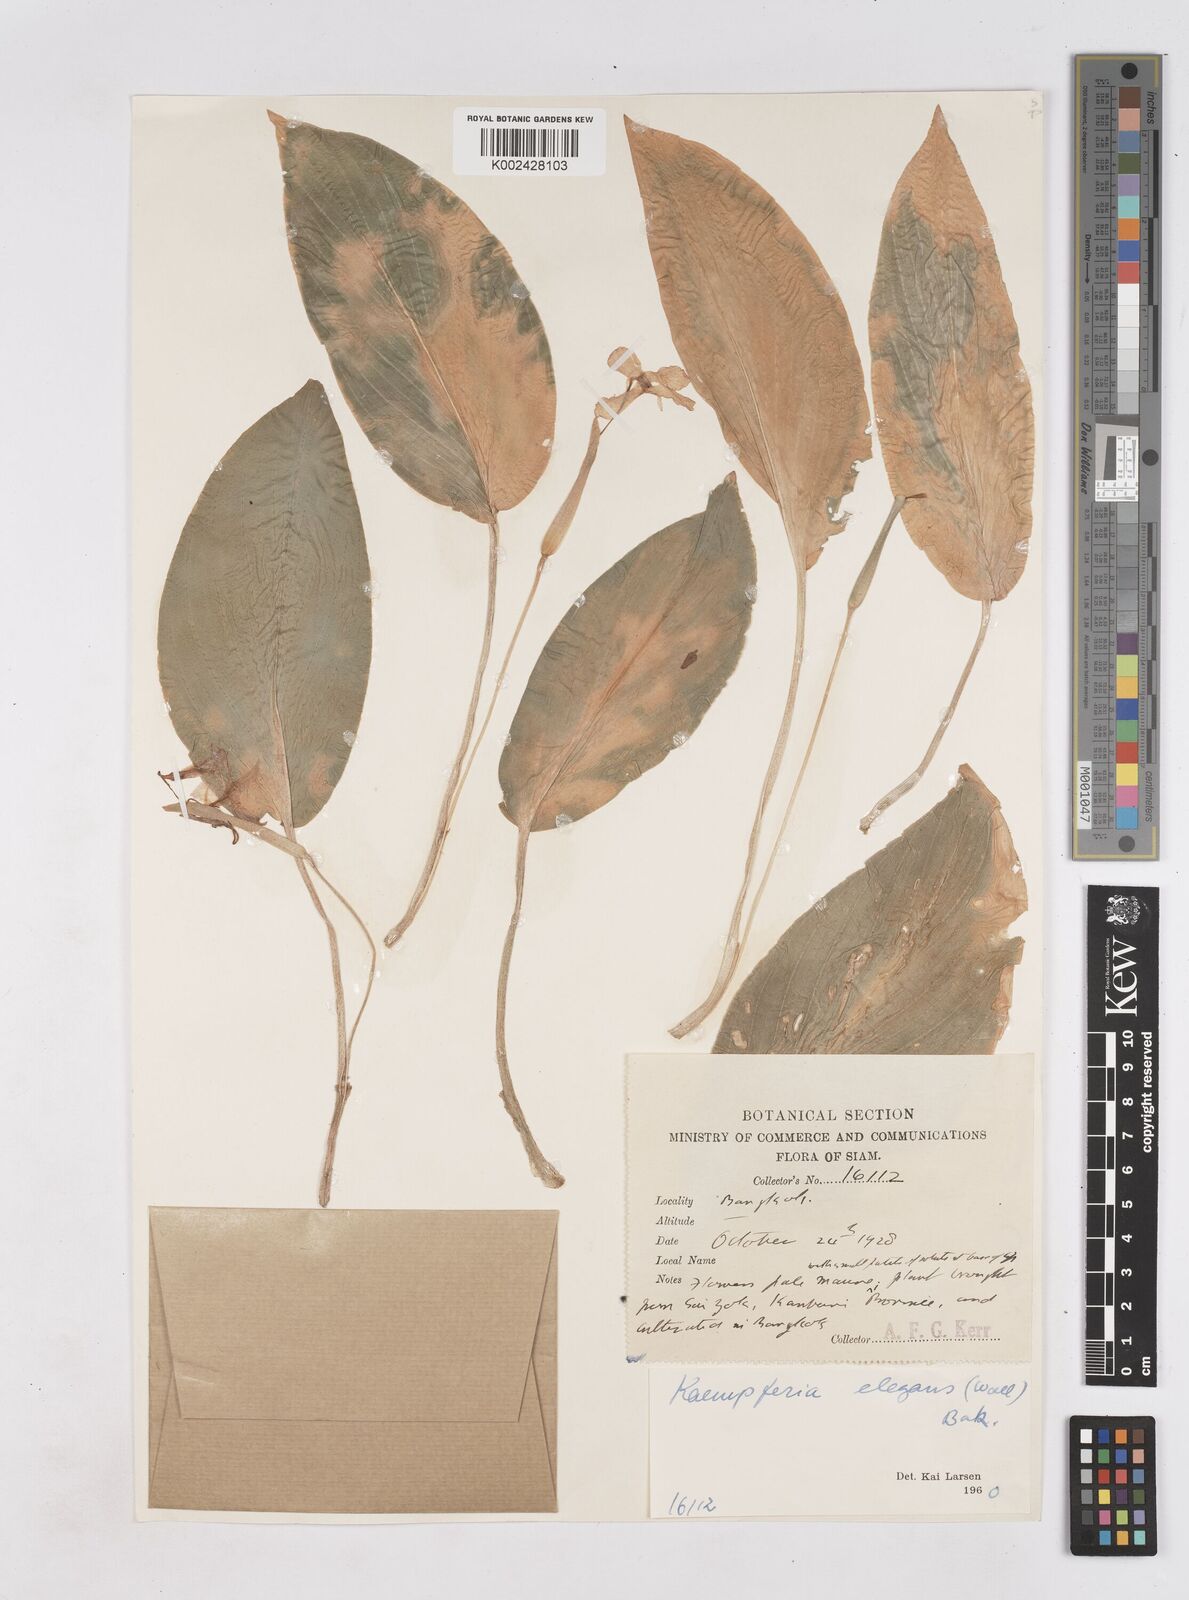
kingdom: Plantae
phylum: Tracheophyta
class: Liliopsida
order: Zingiberales
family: Zingiberaceae
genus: Kaempferia
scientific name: Kaempferia elegans
